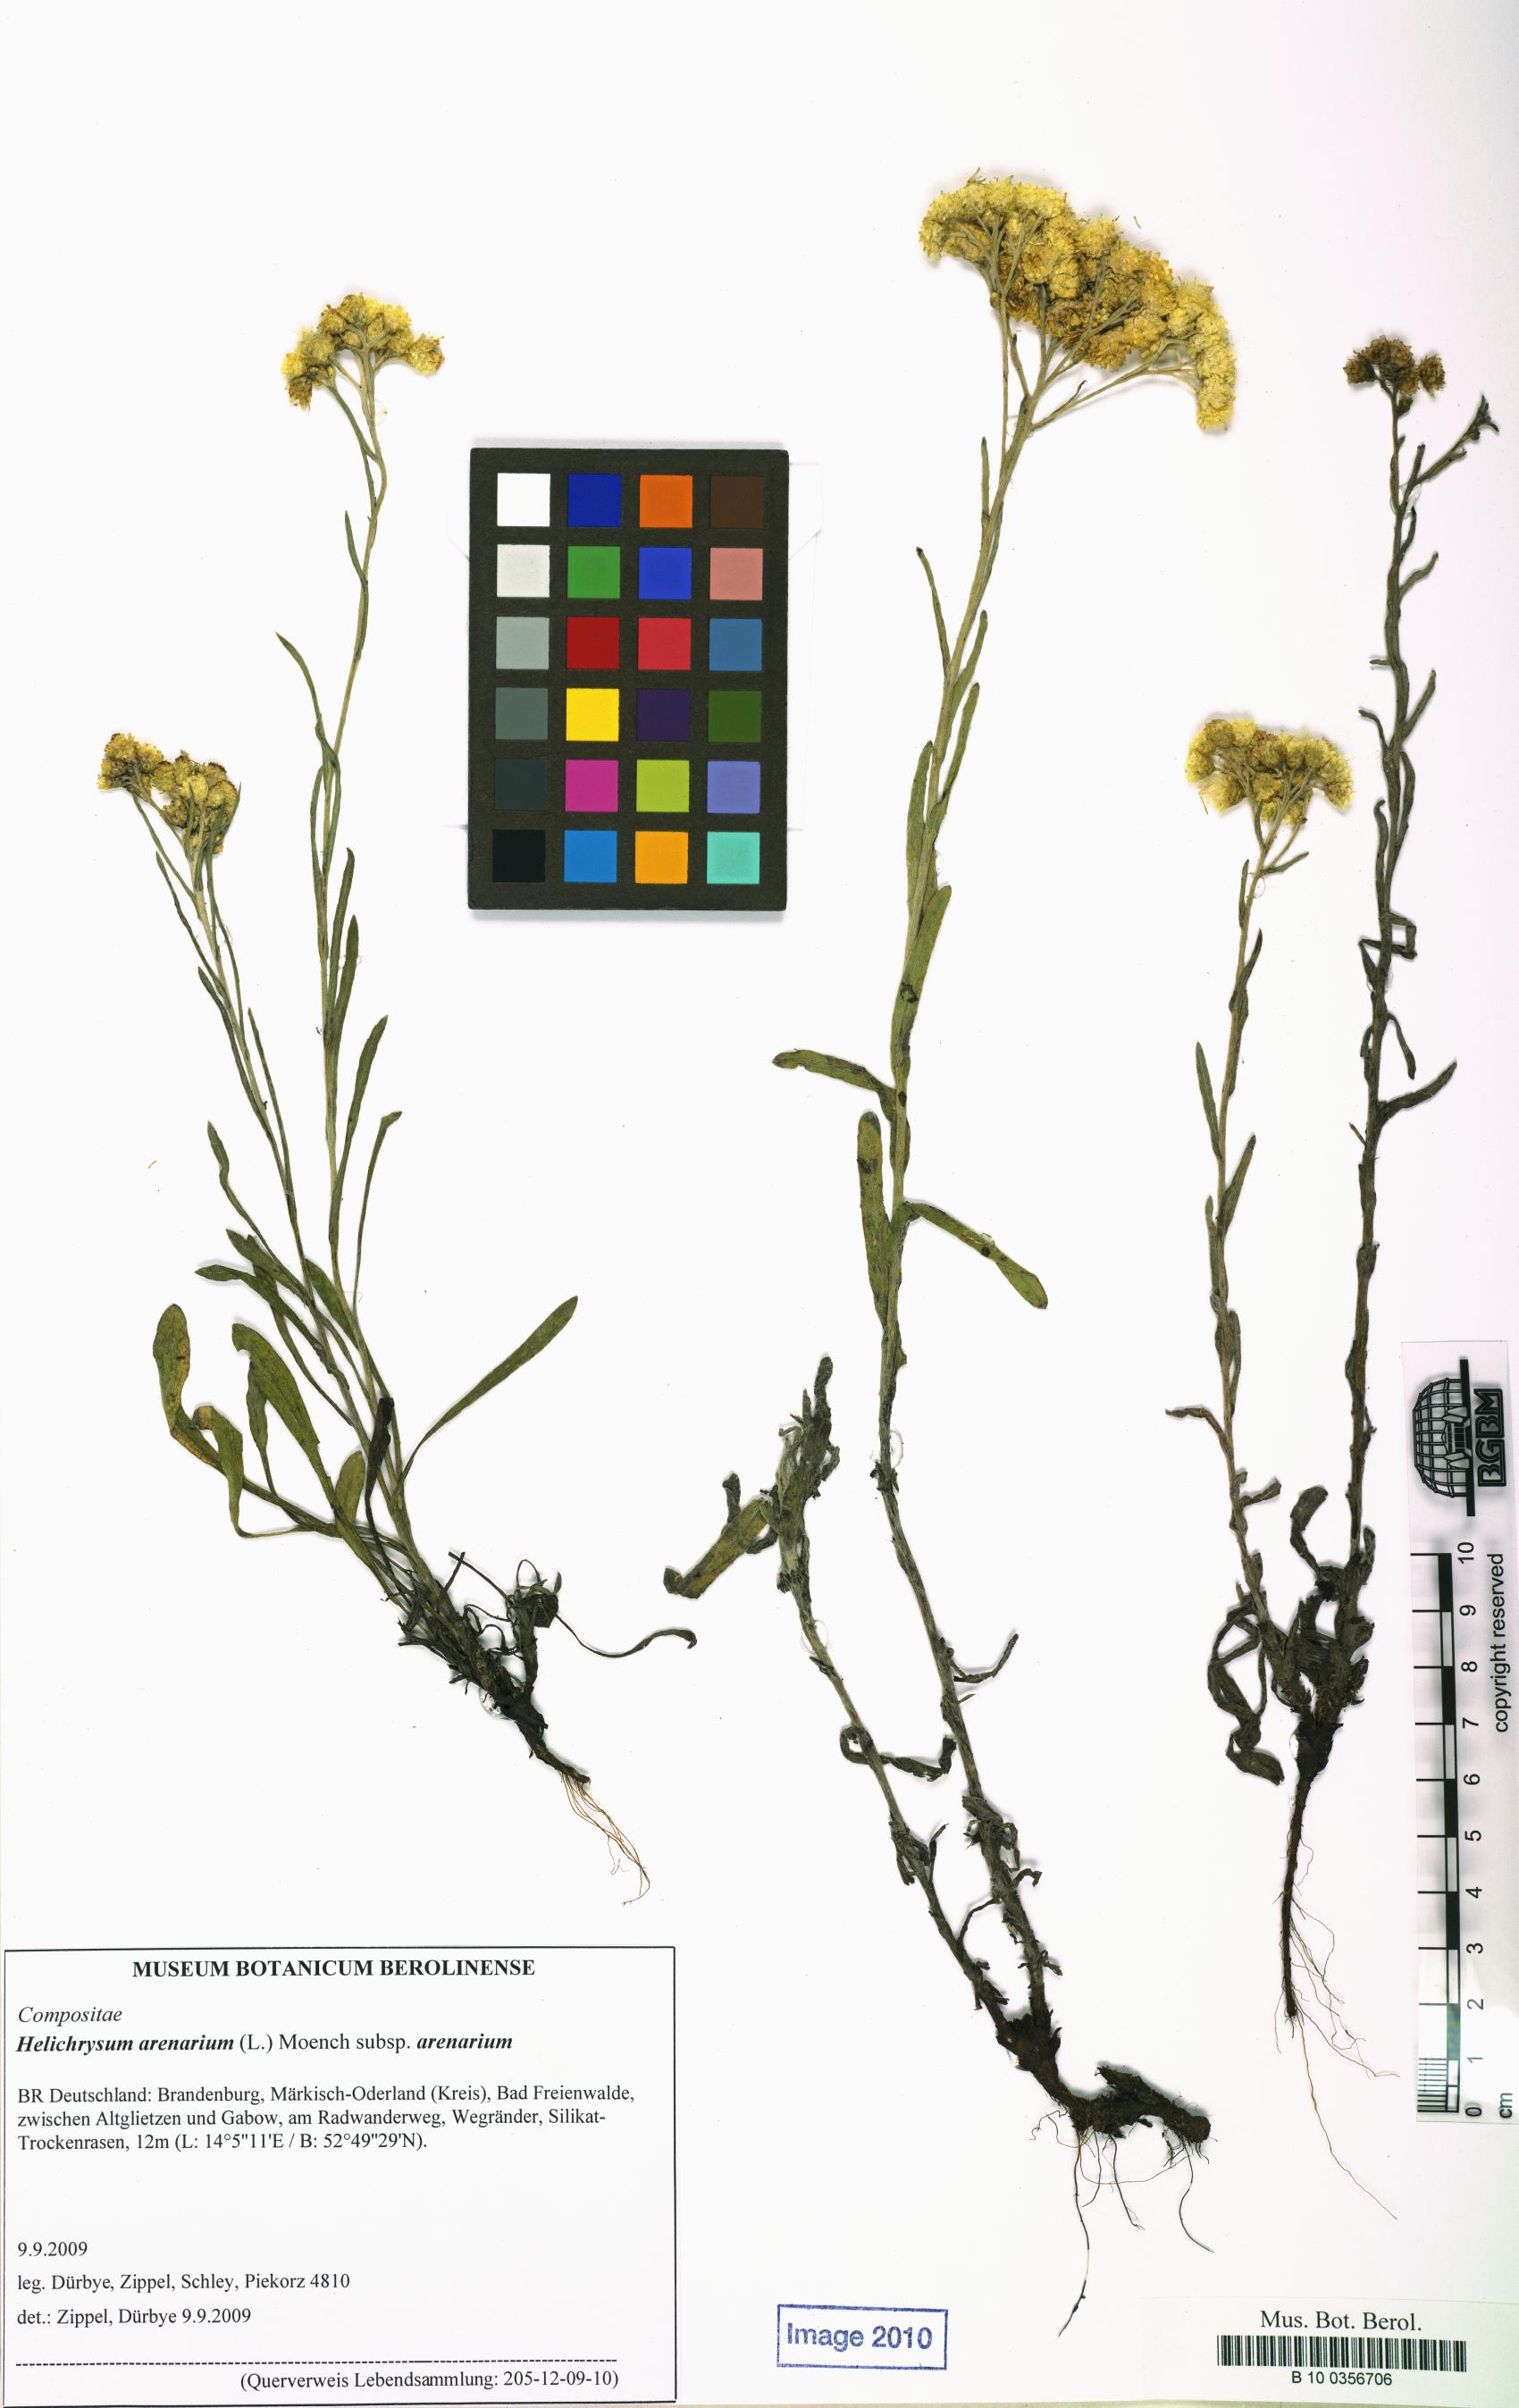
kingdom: Plantae
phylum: Tracheophyta
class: Magnoliopsida
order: Asterales
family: Asteraceae
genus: Helichrysum
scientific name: Helichrysum arenarium
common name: Strawflower
